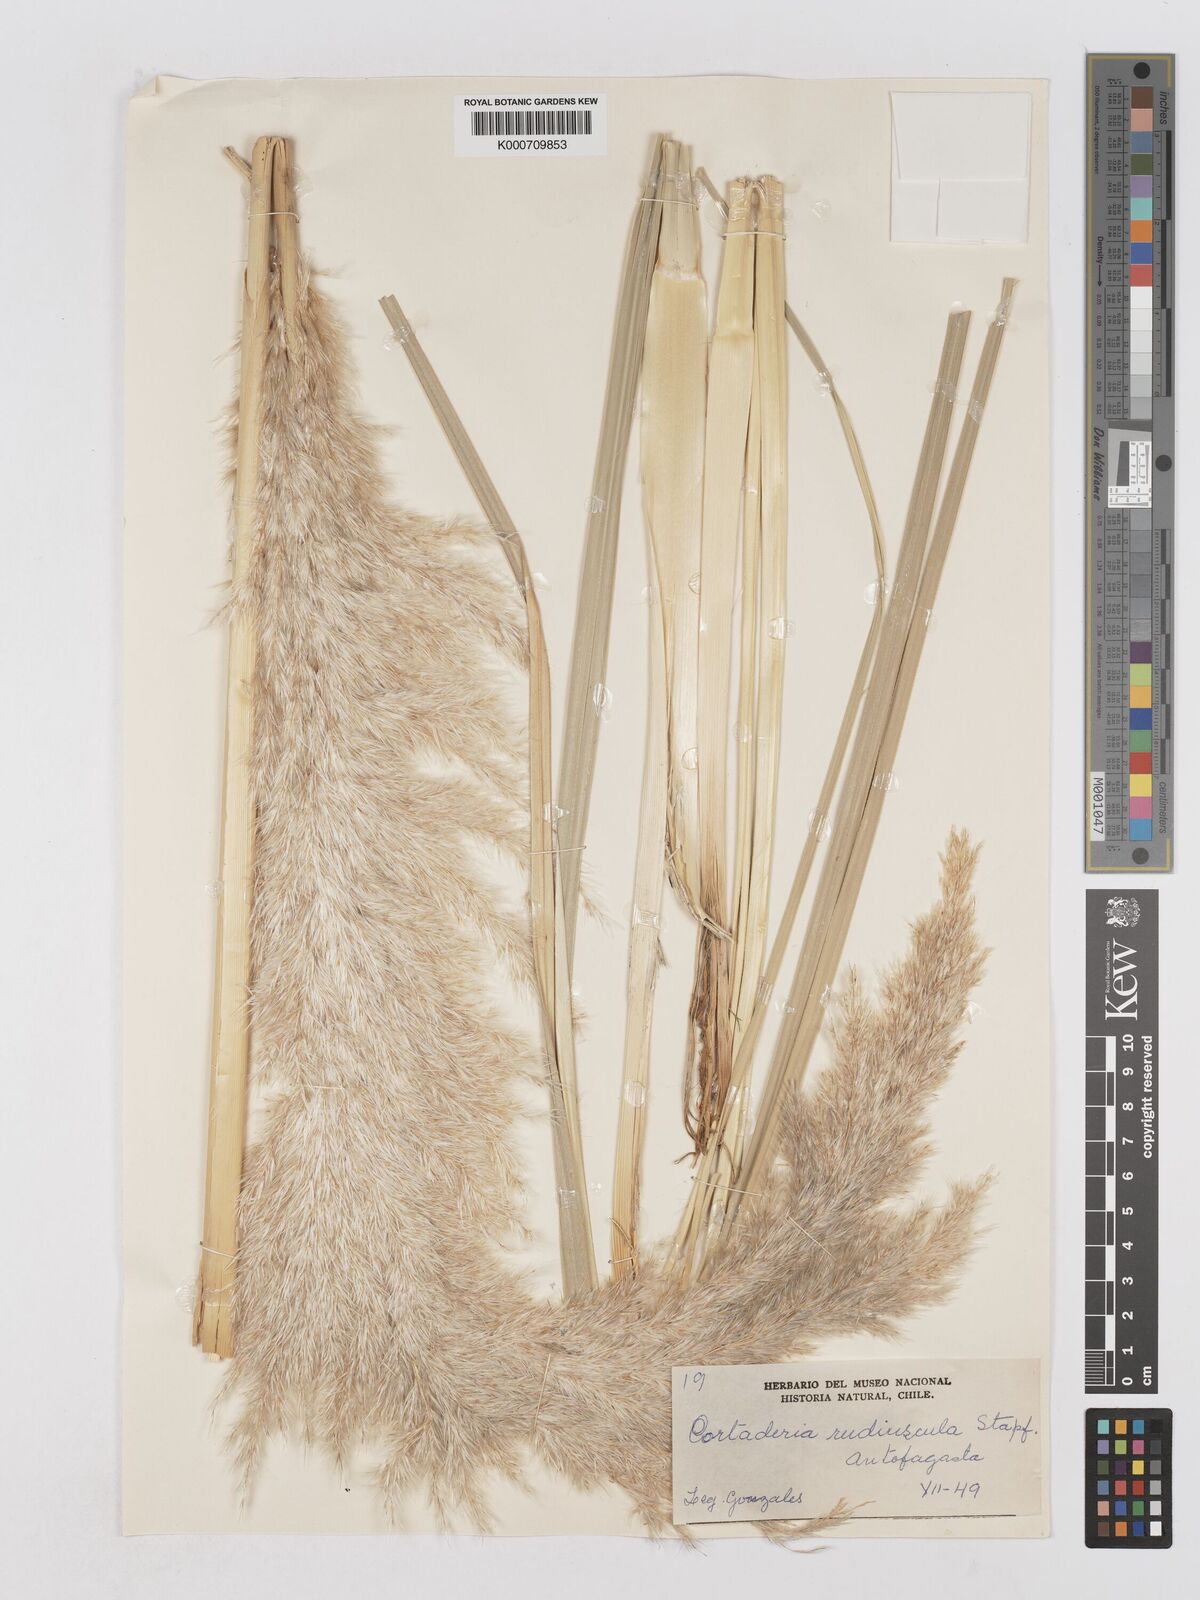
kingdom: Plantae
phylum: Tracheophyta
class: Liliopsida
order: Poales
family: Poaceae
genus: Cortaderia
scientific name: Cortaderia rudiuscula
